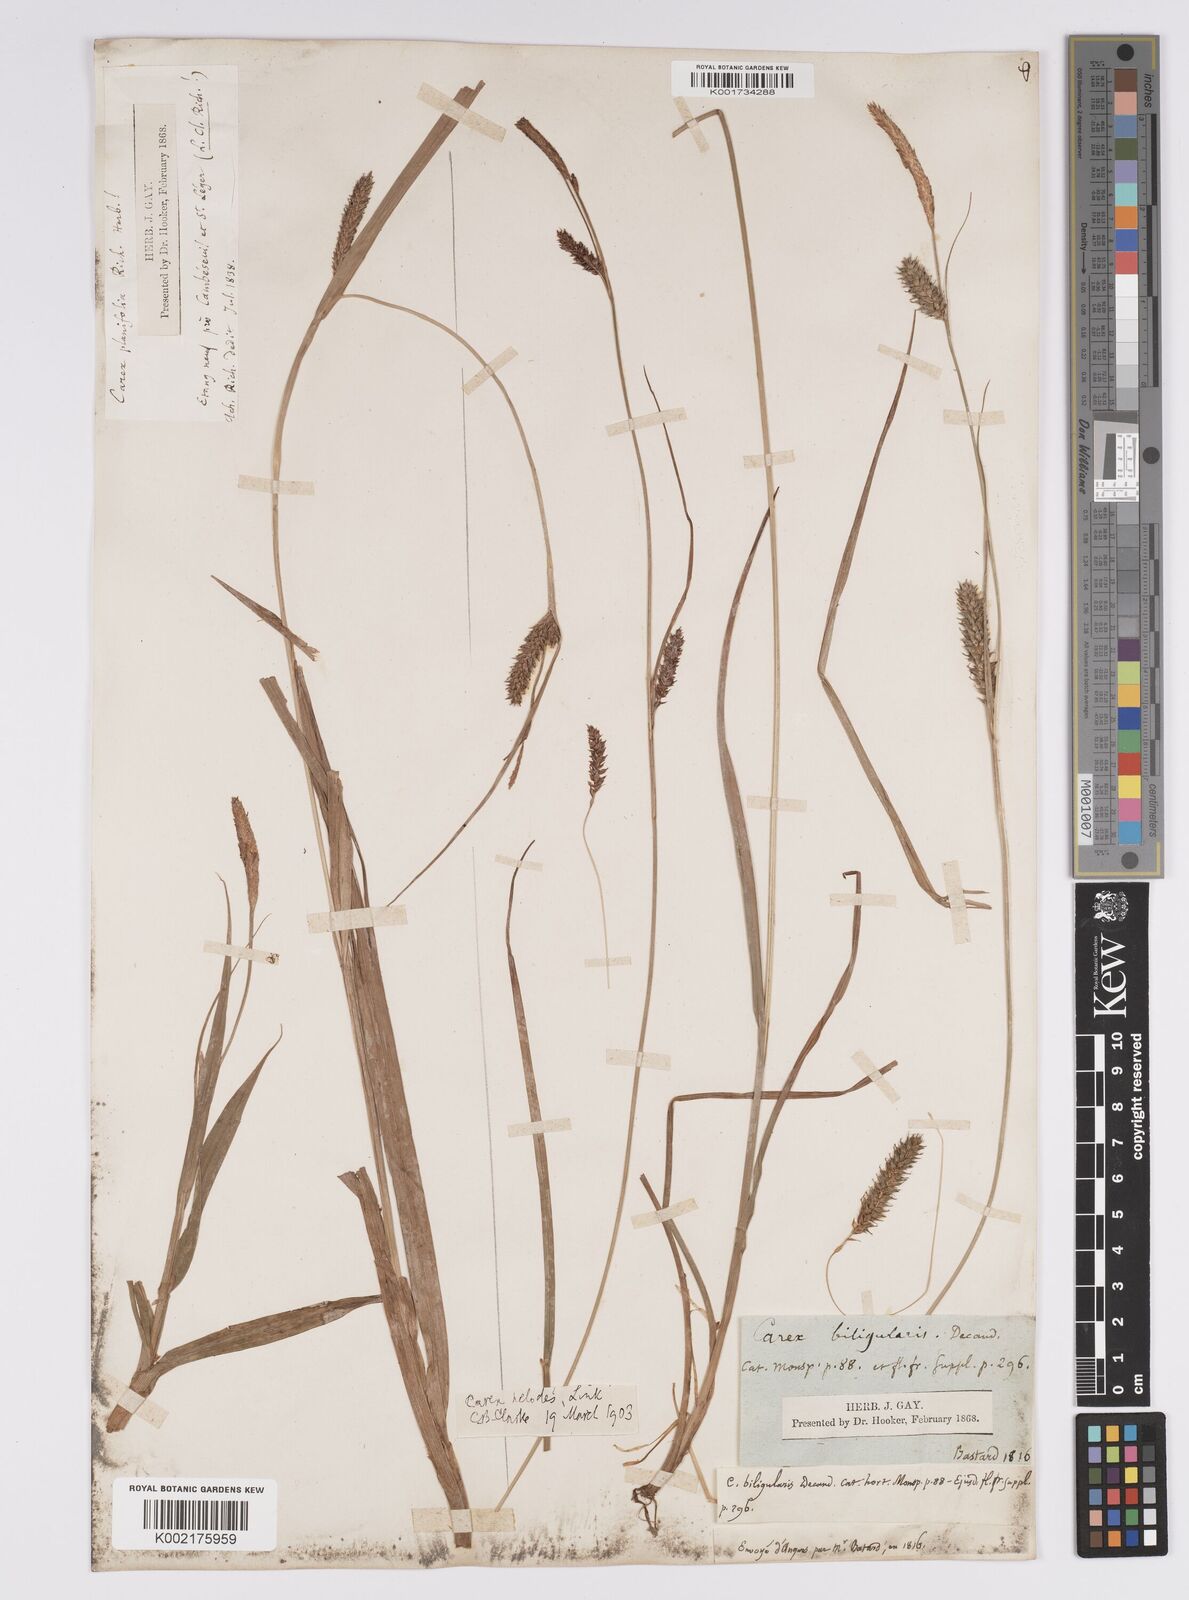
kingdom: Plantae
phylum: Tracheophyta
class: Liliopsida
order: Poales
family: Cyperaceae
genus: Carex
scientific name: Carex laevigata
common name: Smooth-stalked sedge
